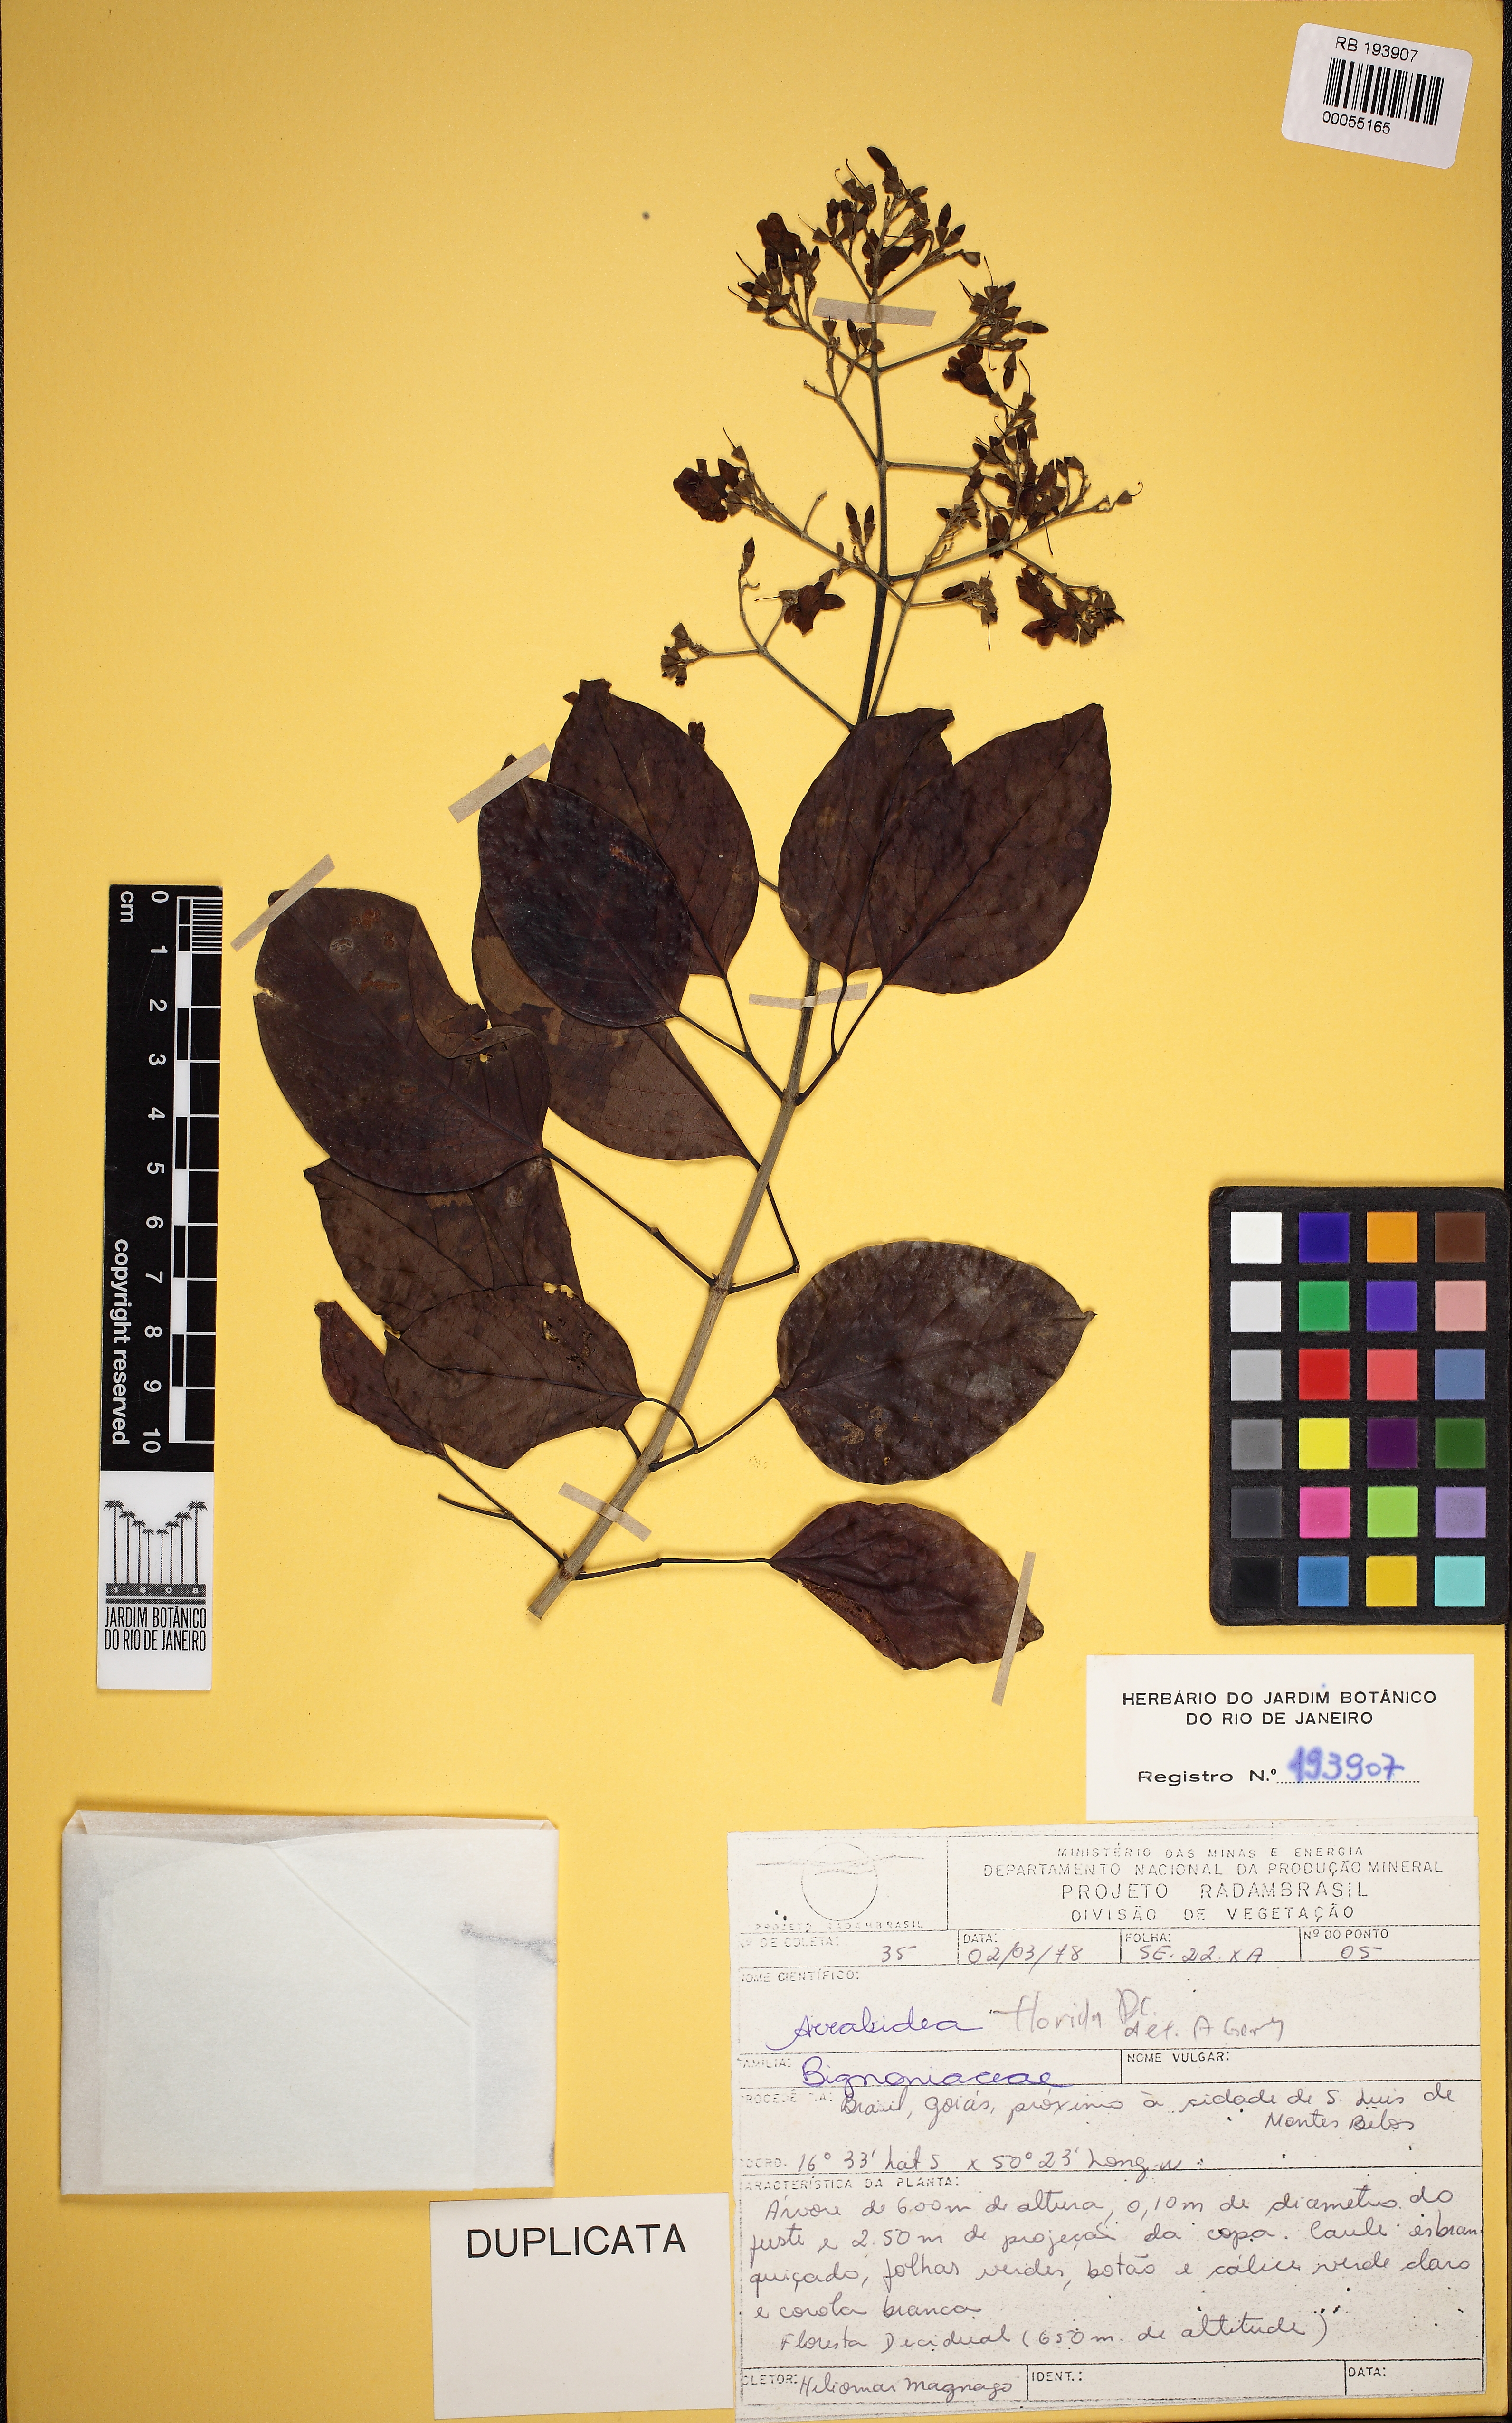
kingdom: Plantae
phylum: Tracheophyta
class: Magnoliopsida
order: Lamiales
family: Bignoniaceae
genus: Fridericia
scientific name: Fridericia florida
